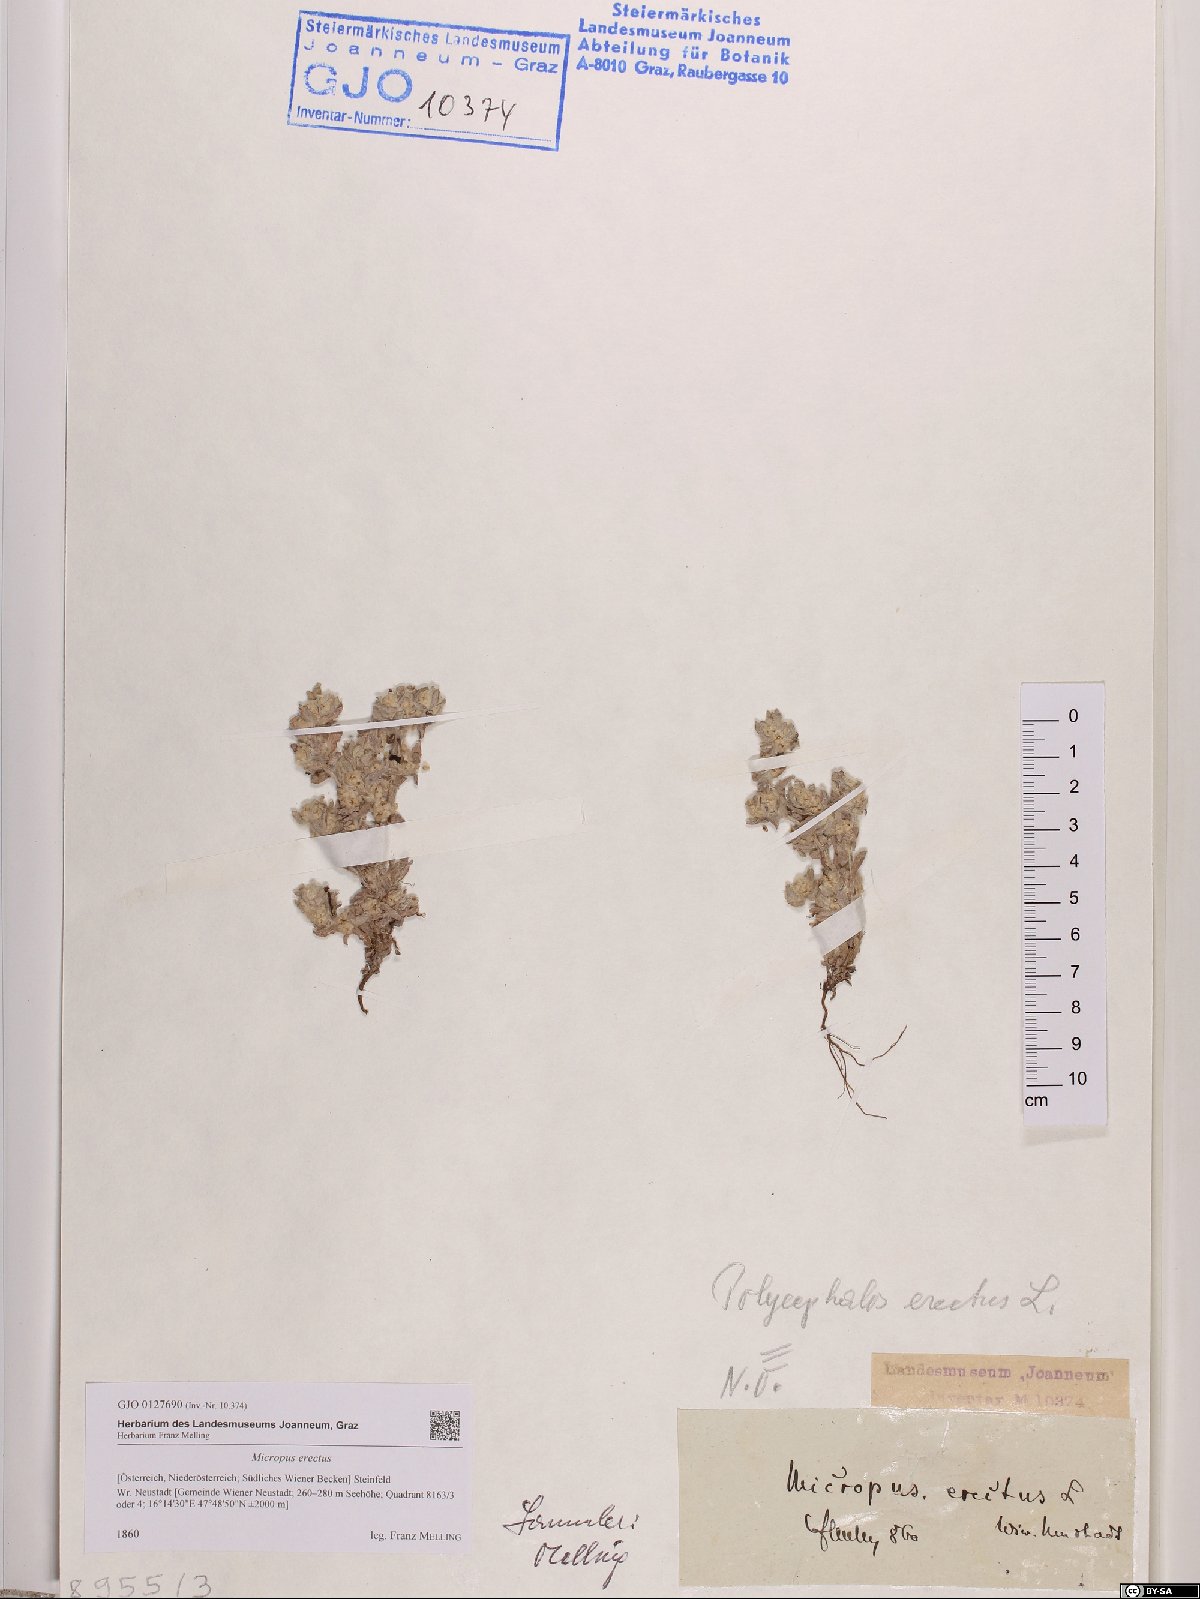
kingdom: Plantae
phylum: Tracheophyta
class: Magnoliopsida
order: Asterales
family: Asteraceae
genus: Bombycilaena
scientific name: Bombycilaena erecta
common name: Micropus
